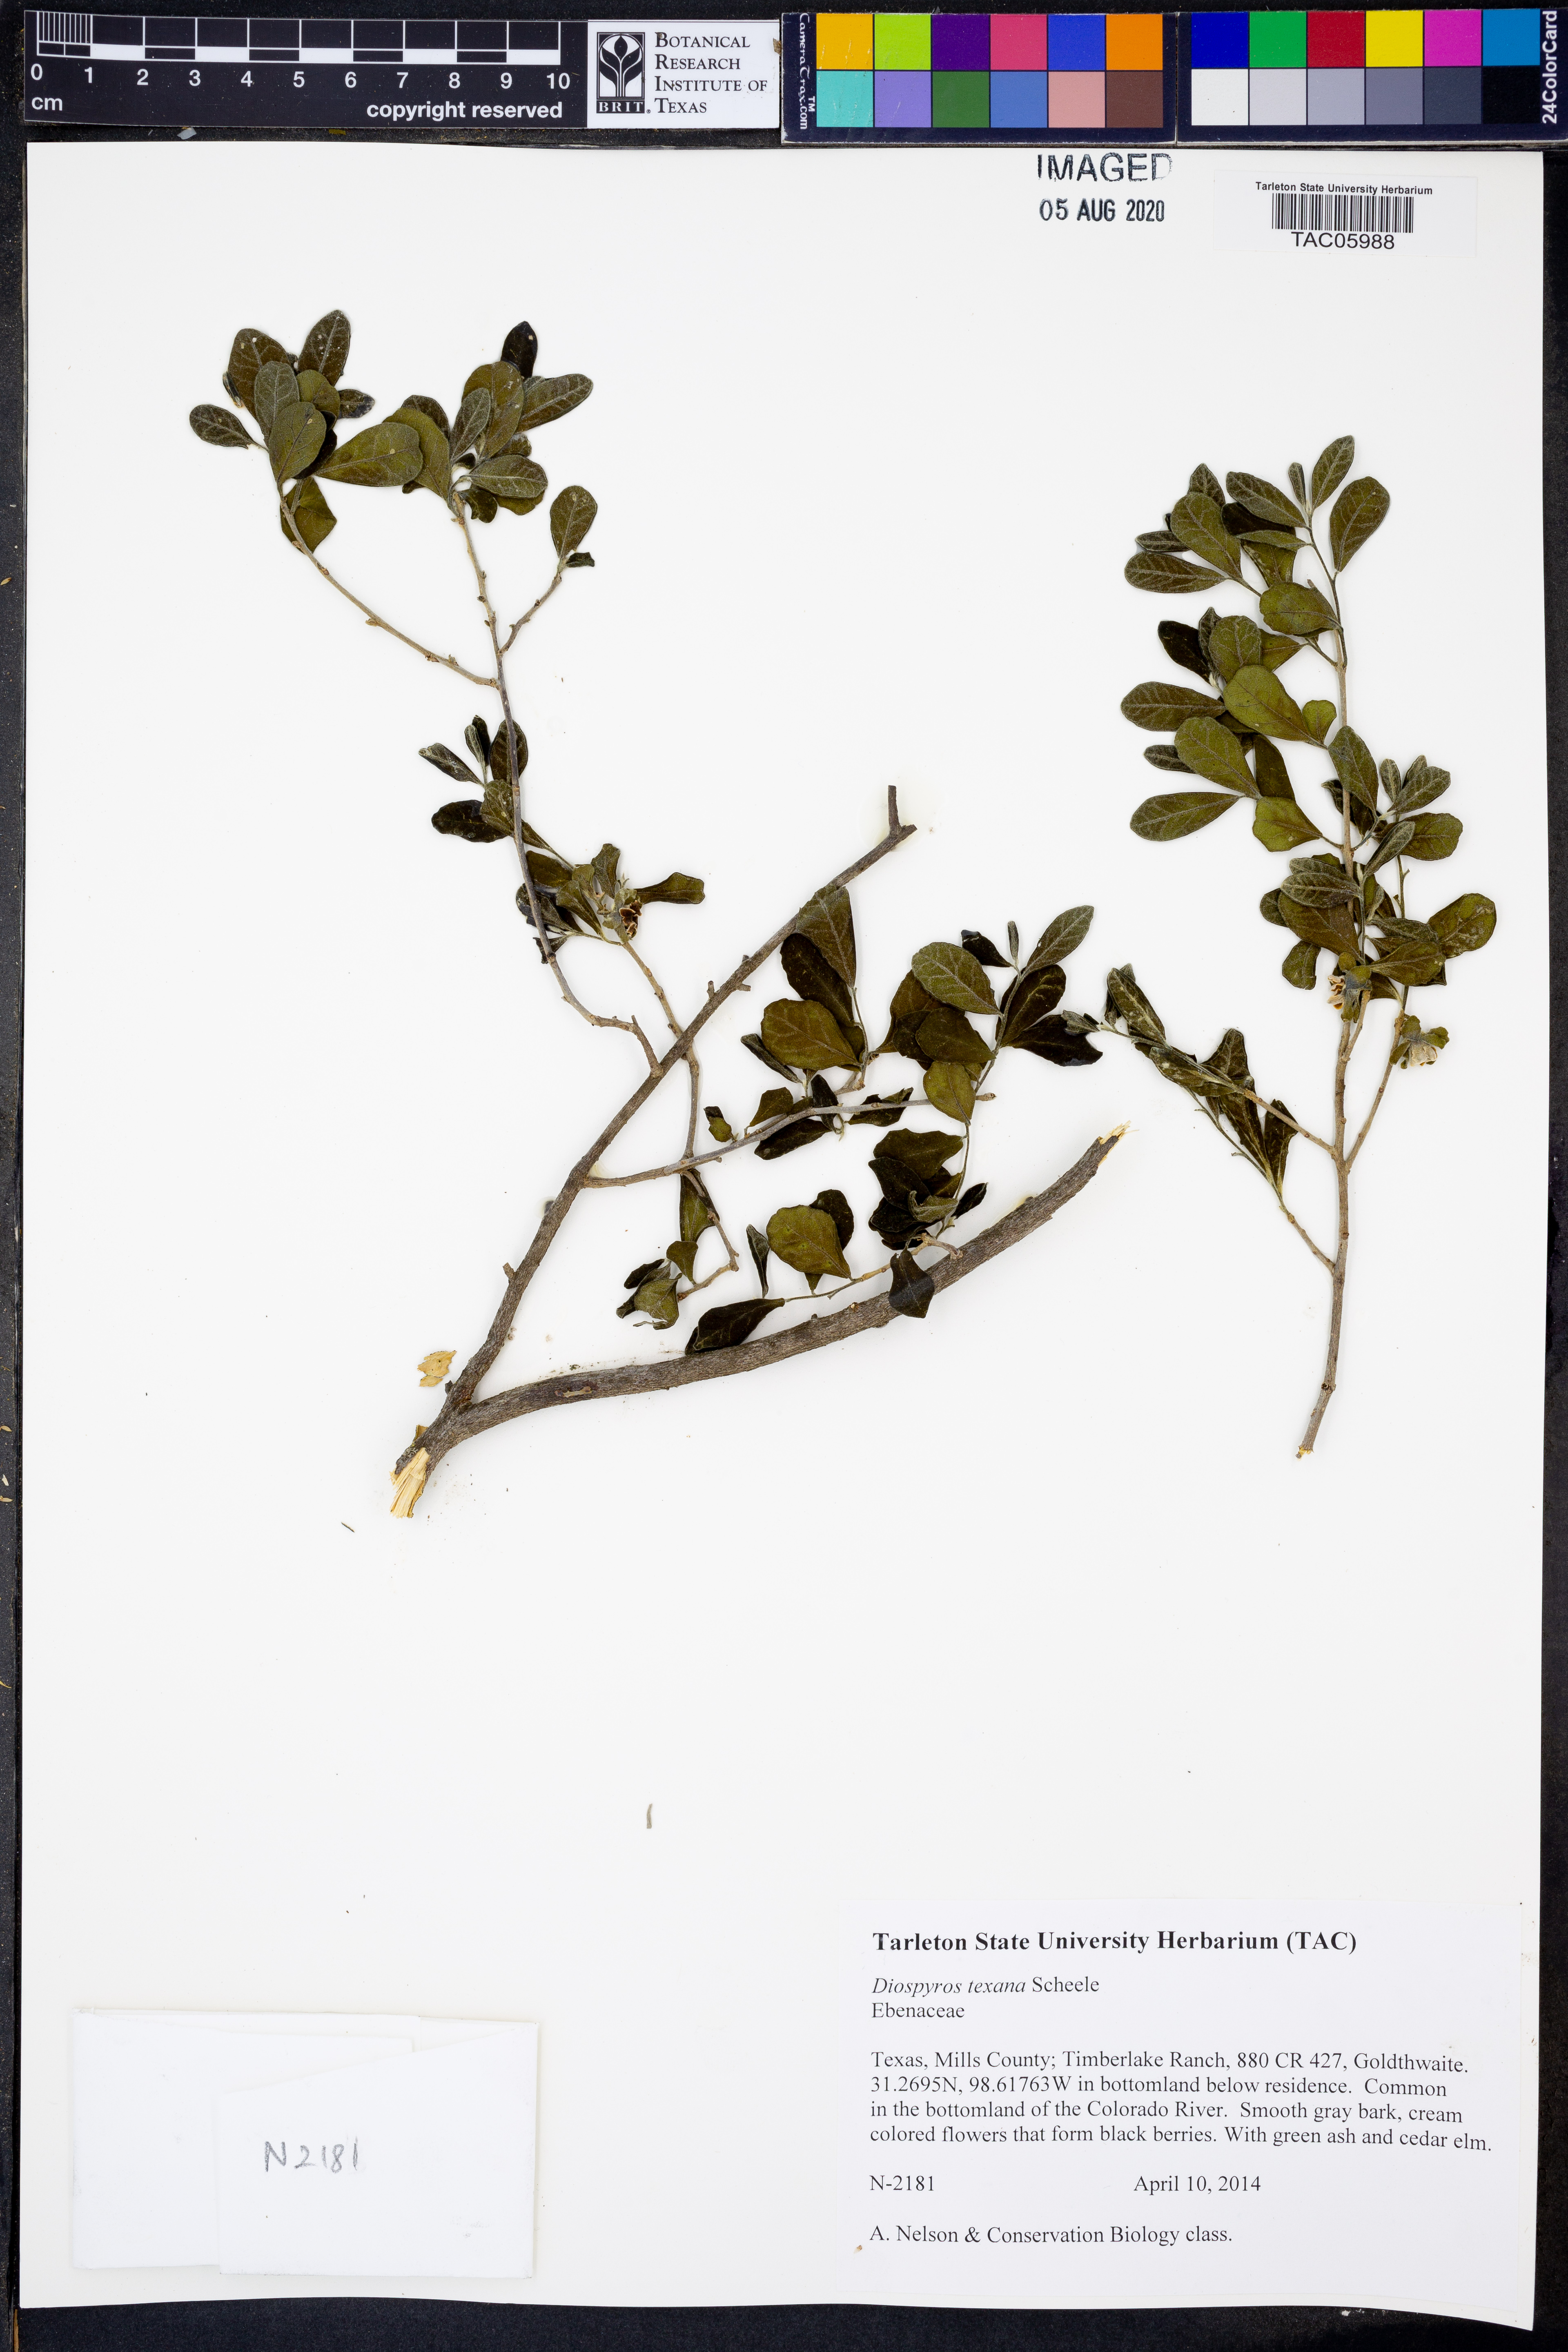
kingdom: Plantae
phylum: Tracheophyta
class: Magnoliopsida
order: Ericales
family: Ebenaceae
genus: Diospyros
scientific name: Diospyros texana
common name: Texas persimmon
